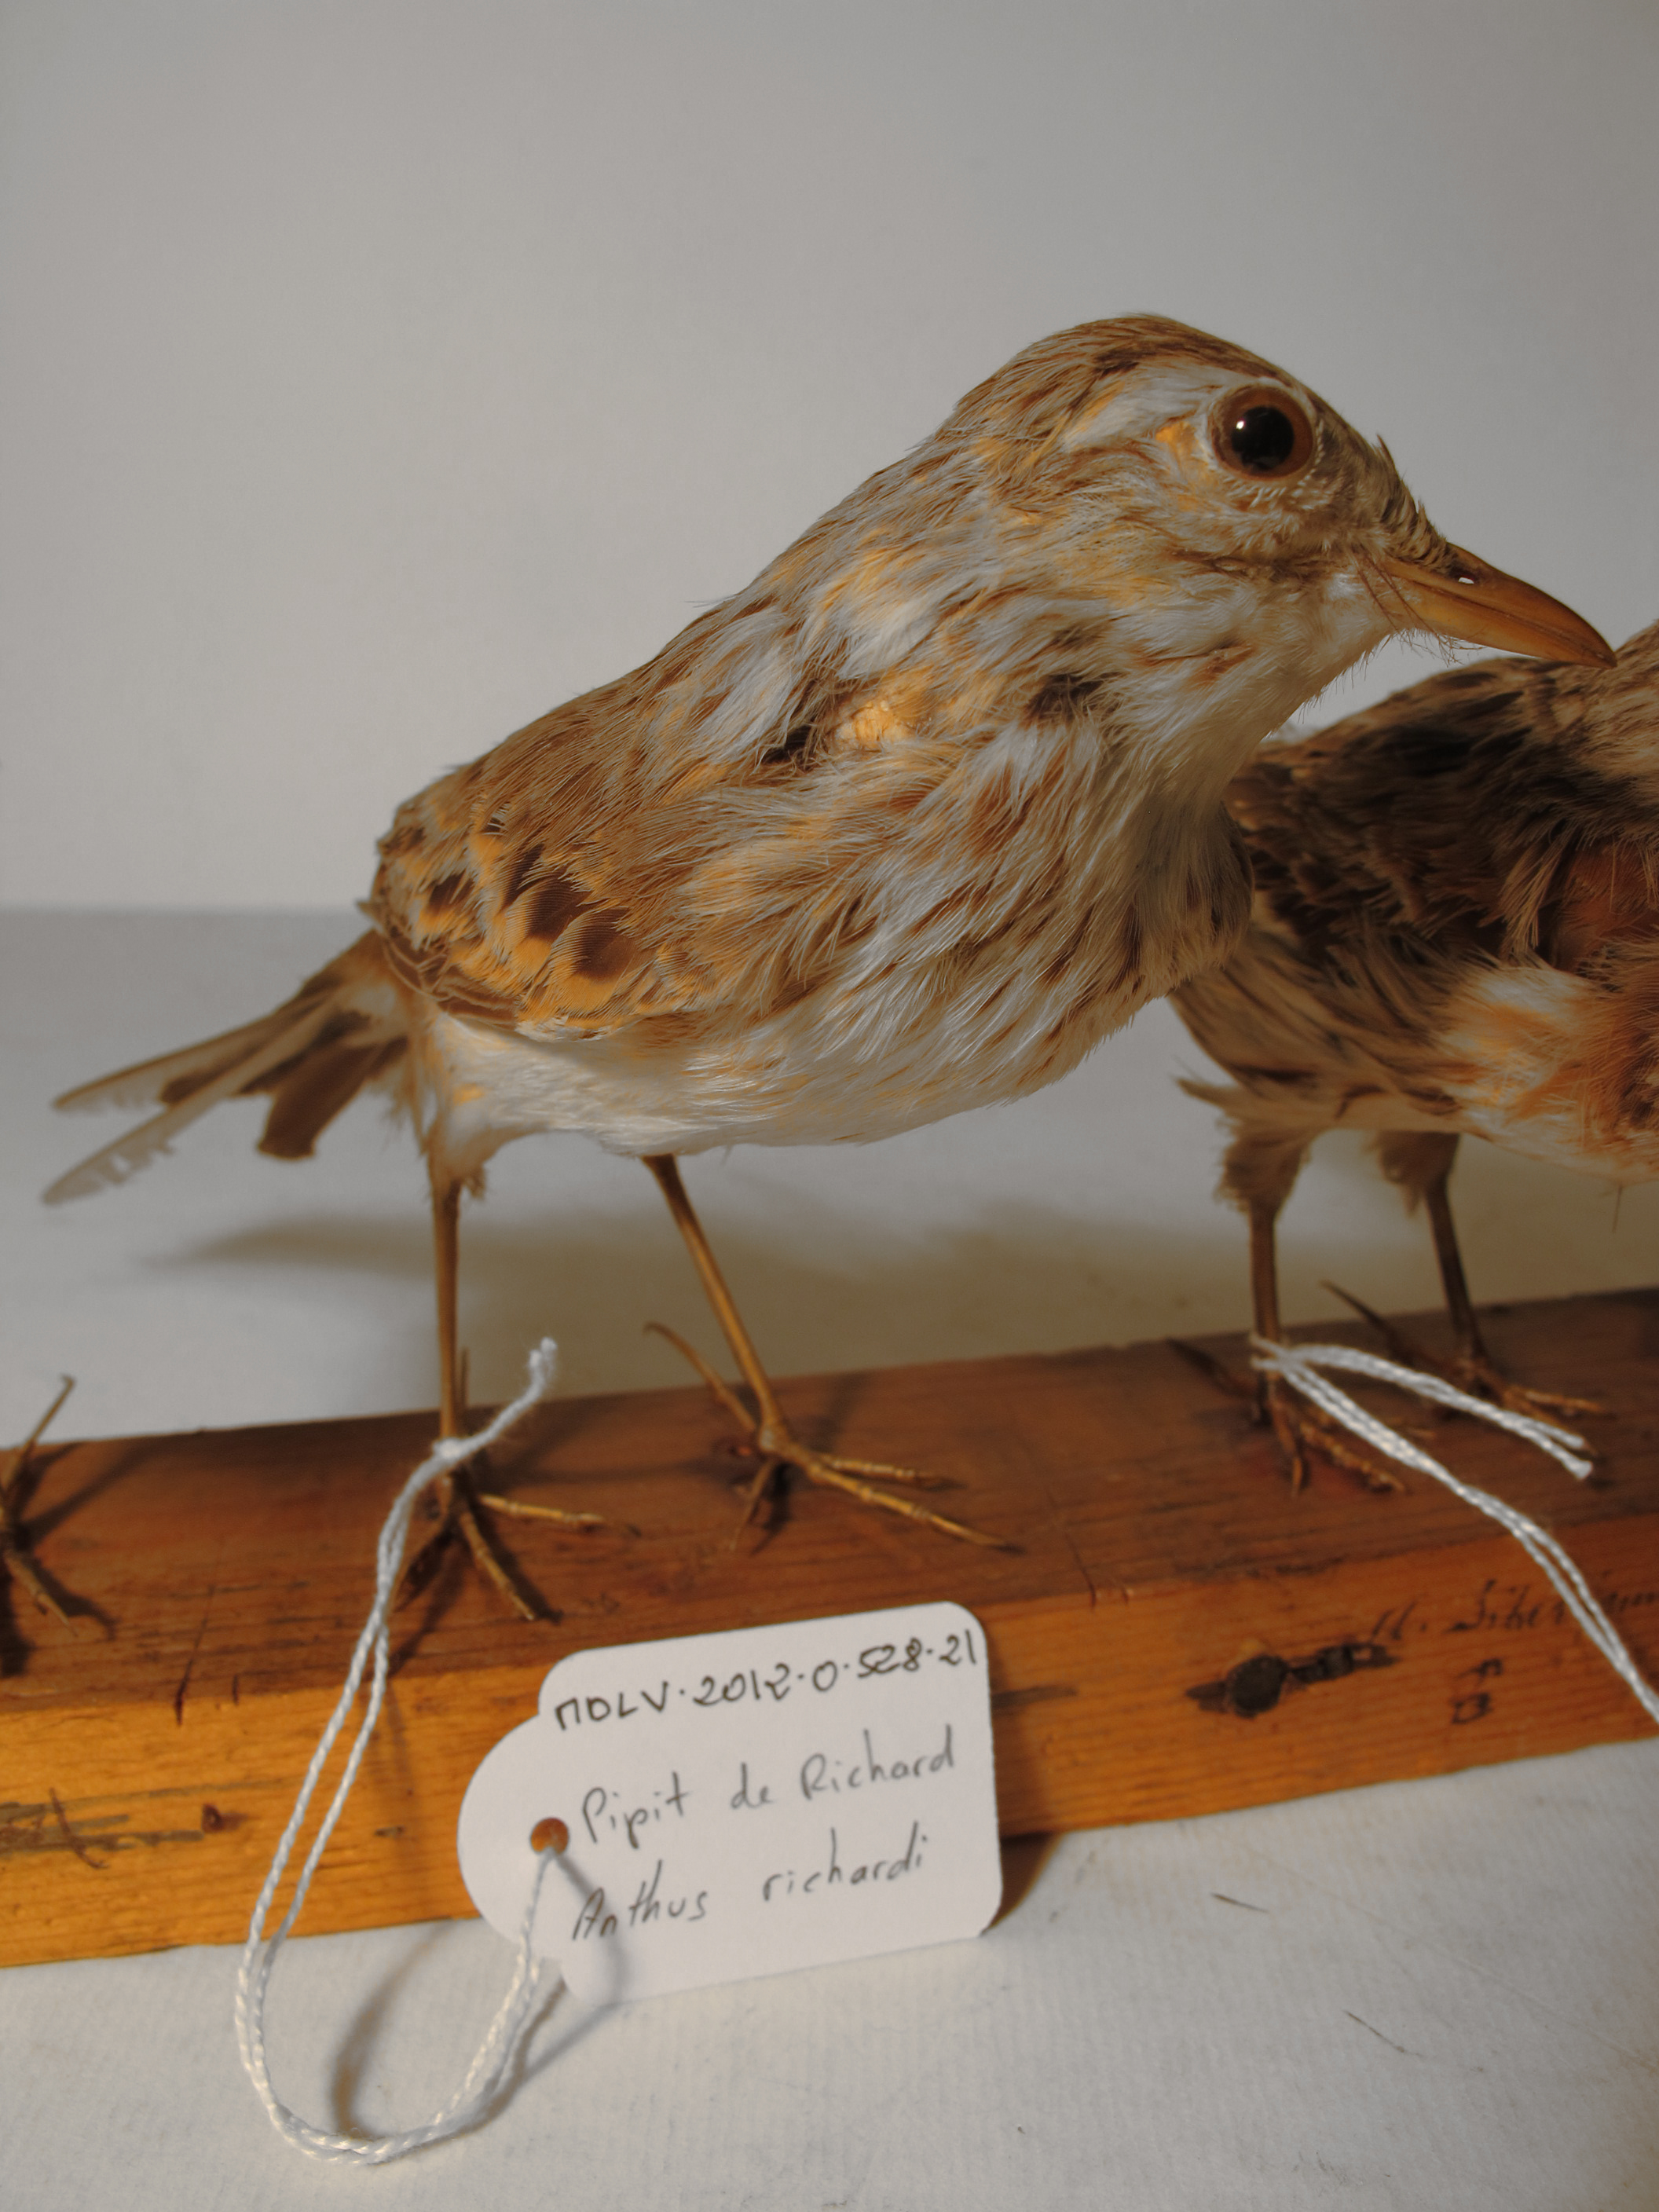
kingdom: Animalia
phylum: Chordata
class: Aves
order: Passeriformes
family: Motacillidae
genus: Anthus
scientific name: Anthus richardi
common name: Richard's Pipit
